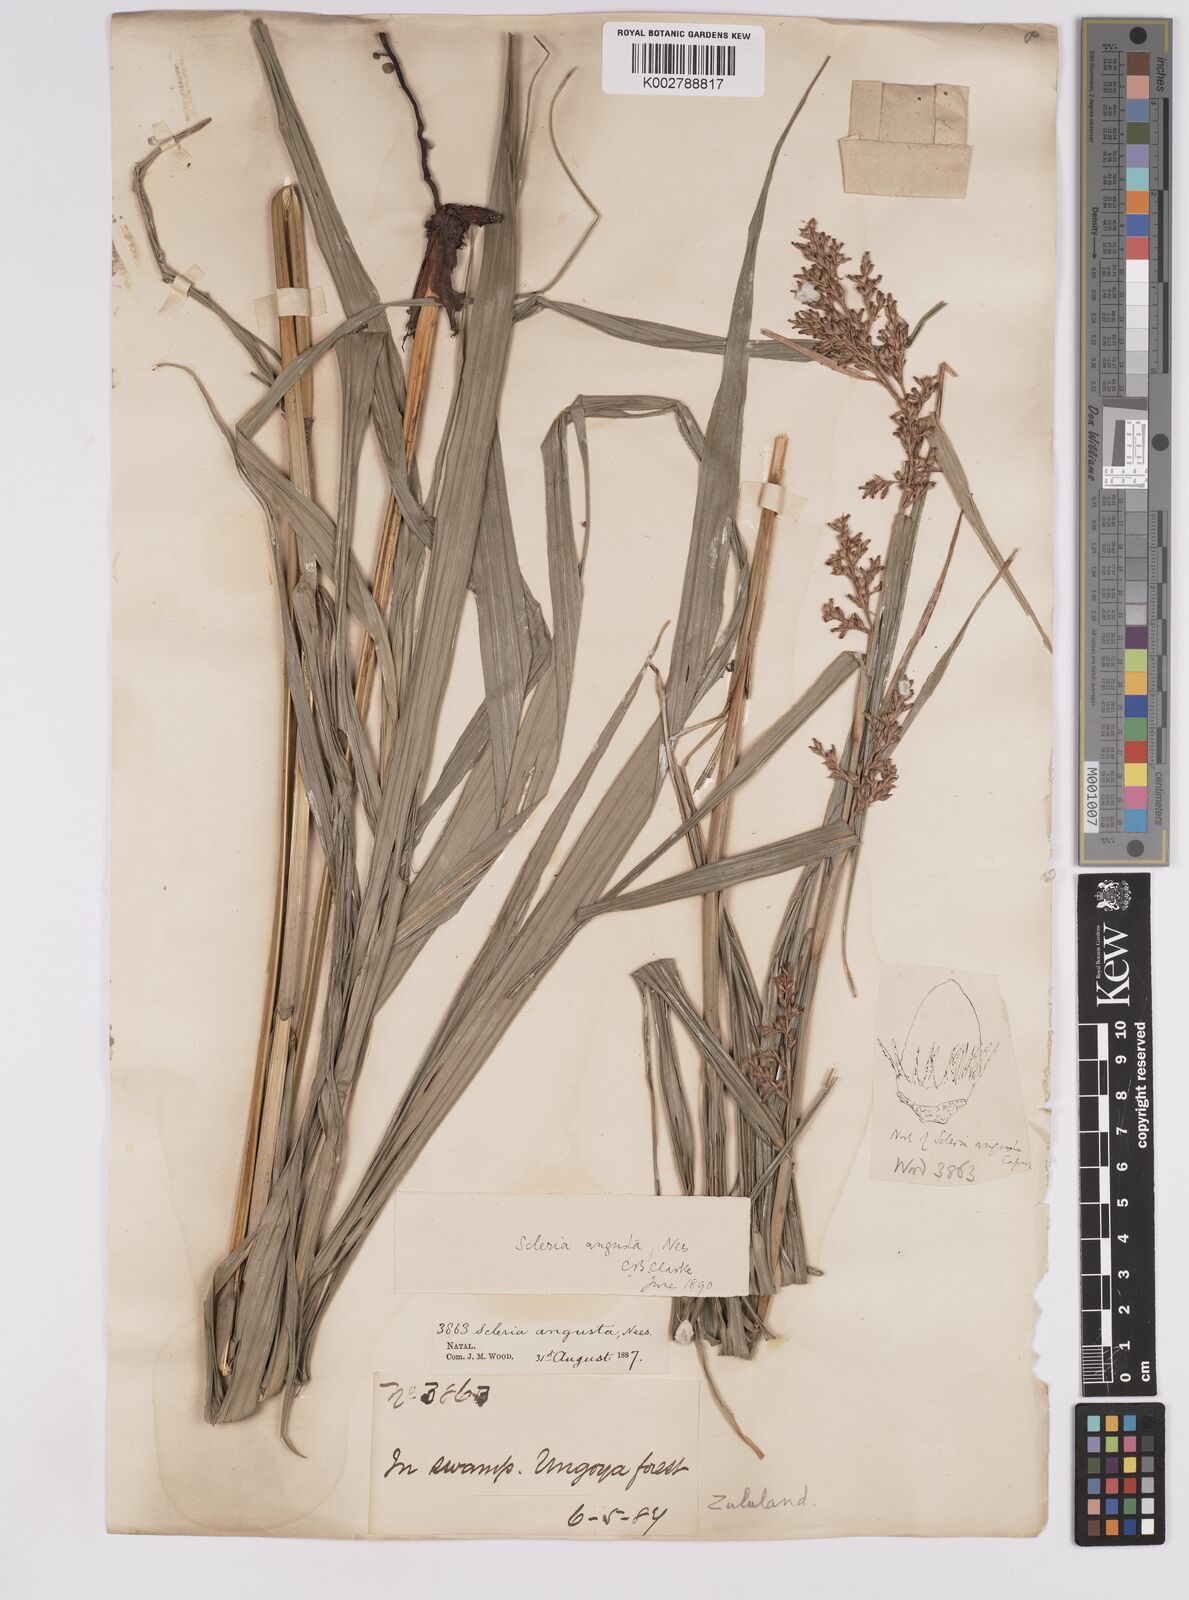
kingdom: Plantae
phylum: Tracheophyta
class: Liliopsida
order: Poales
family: Cyperaceae
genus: Scleria
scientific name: Scleria angusta
